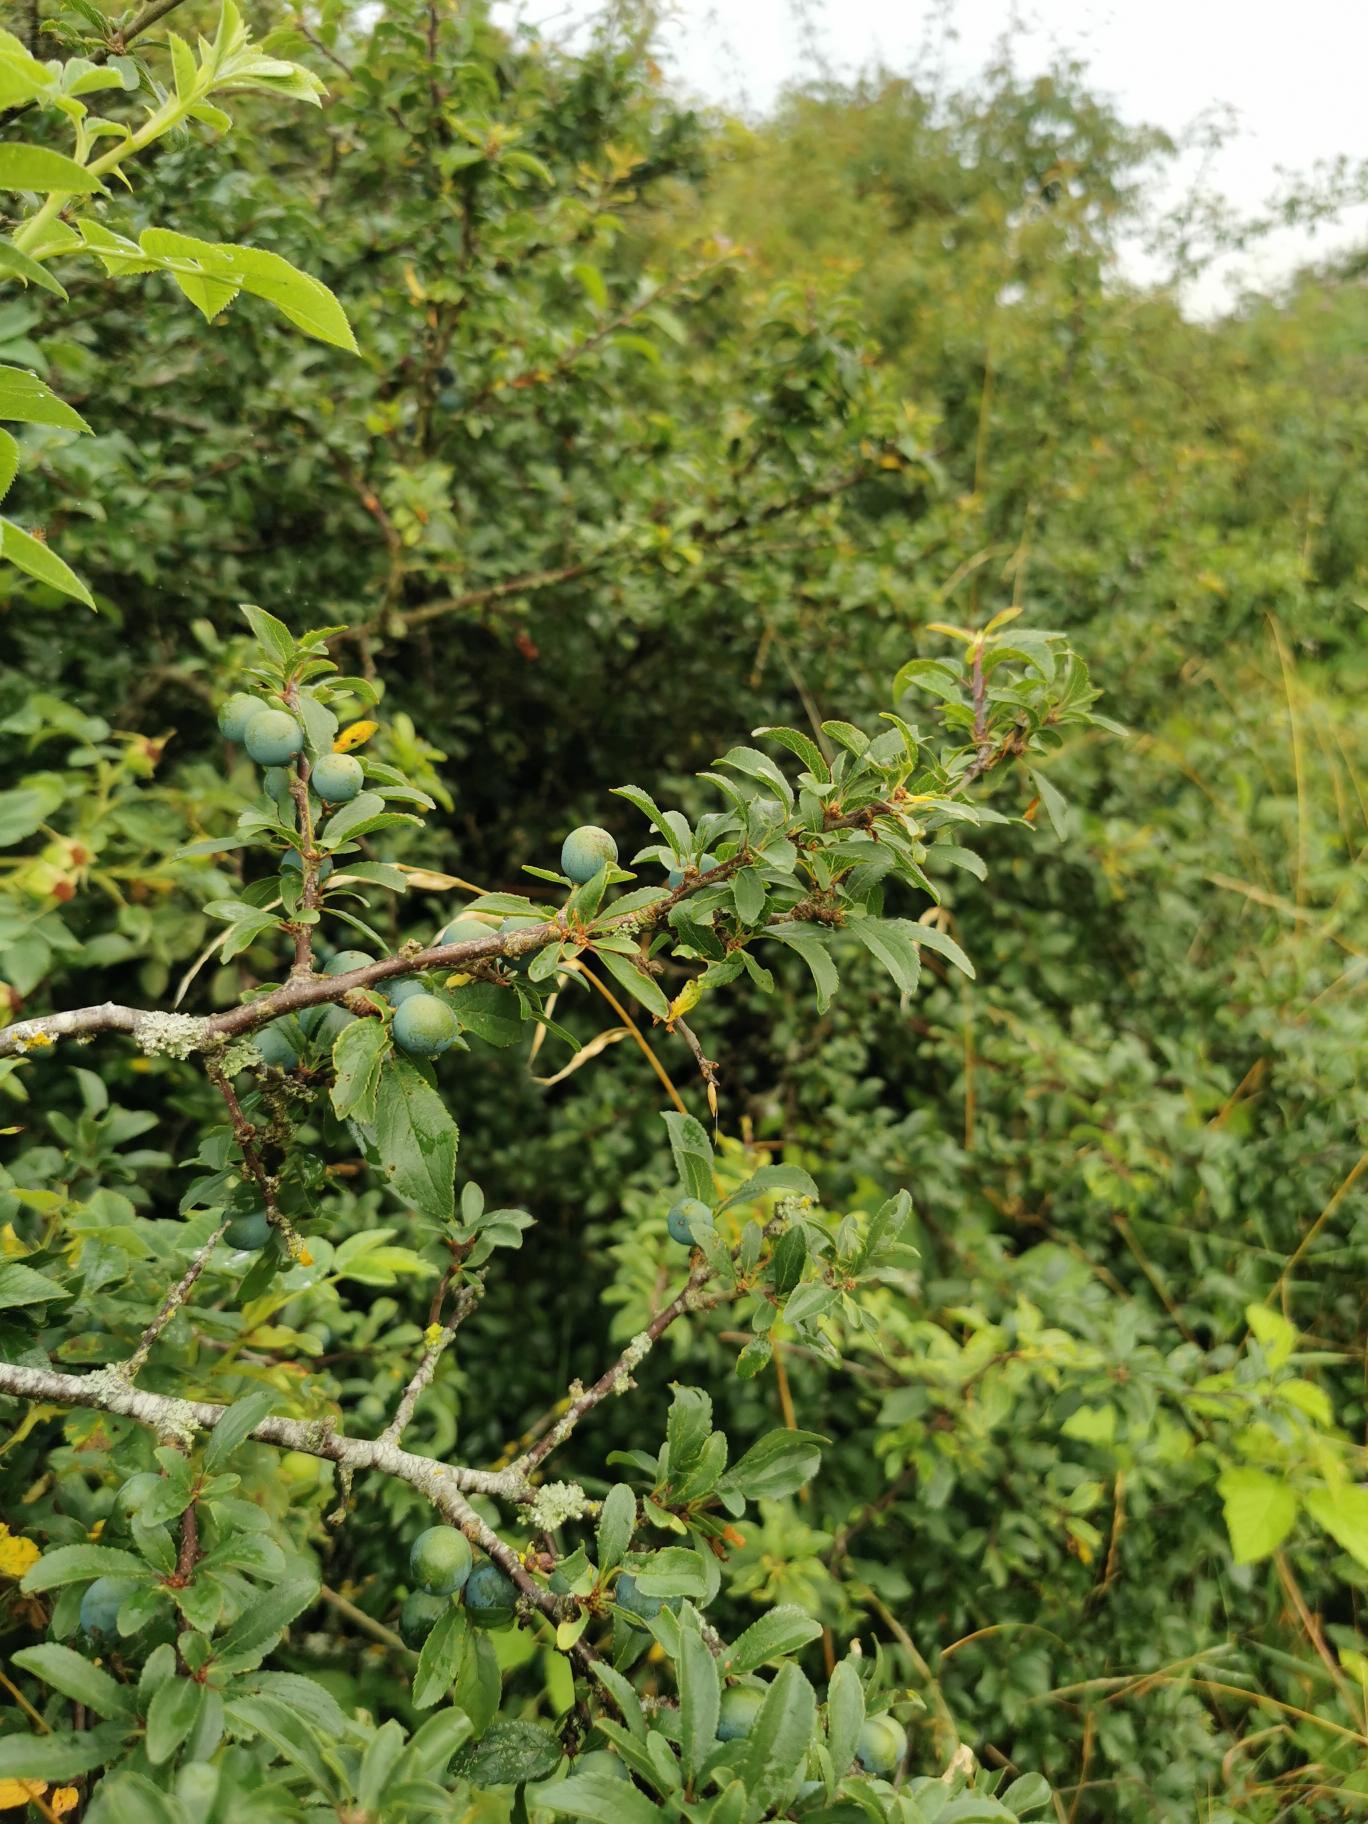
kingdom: Plantae
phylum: Tracheophyta
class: Magnoliopsida
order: Rosales
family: Rosaceae
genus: Prunus
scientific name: Prunus spinosa
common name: Slåen
